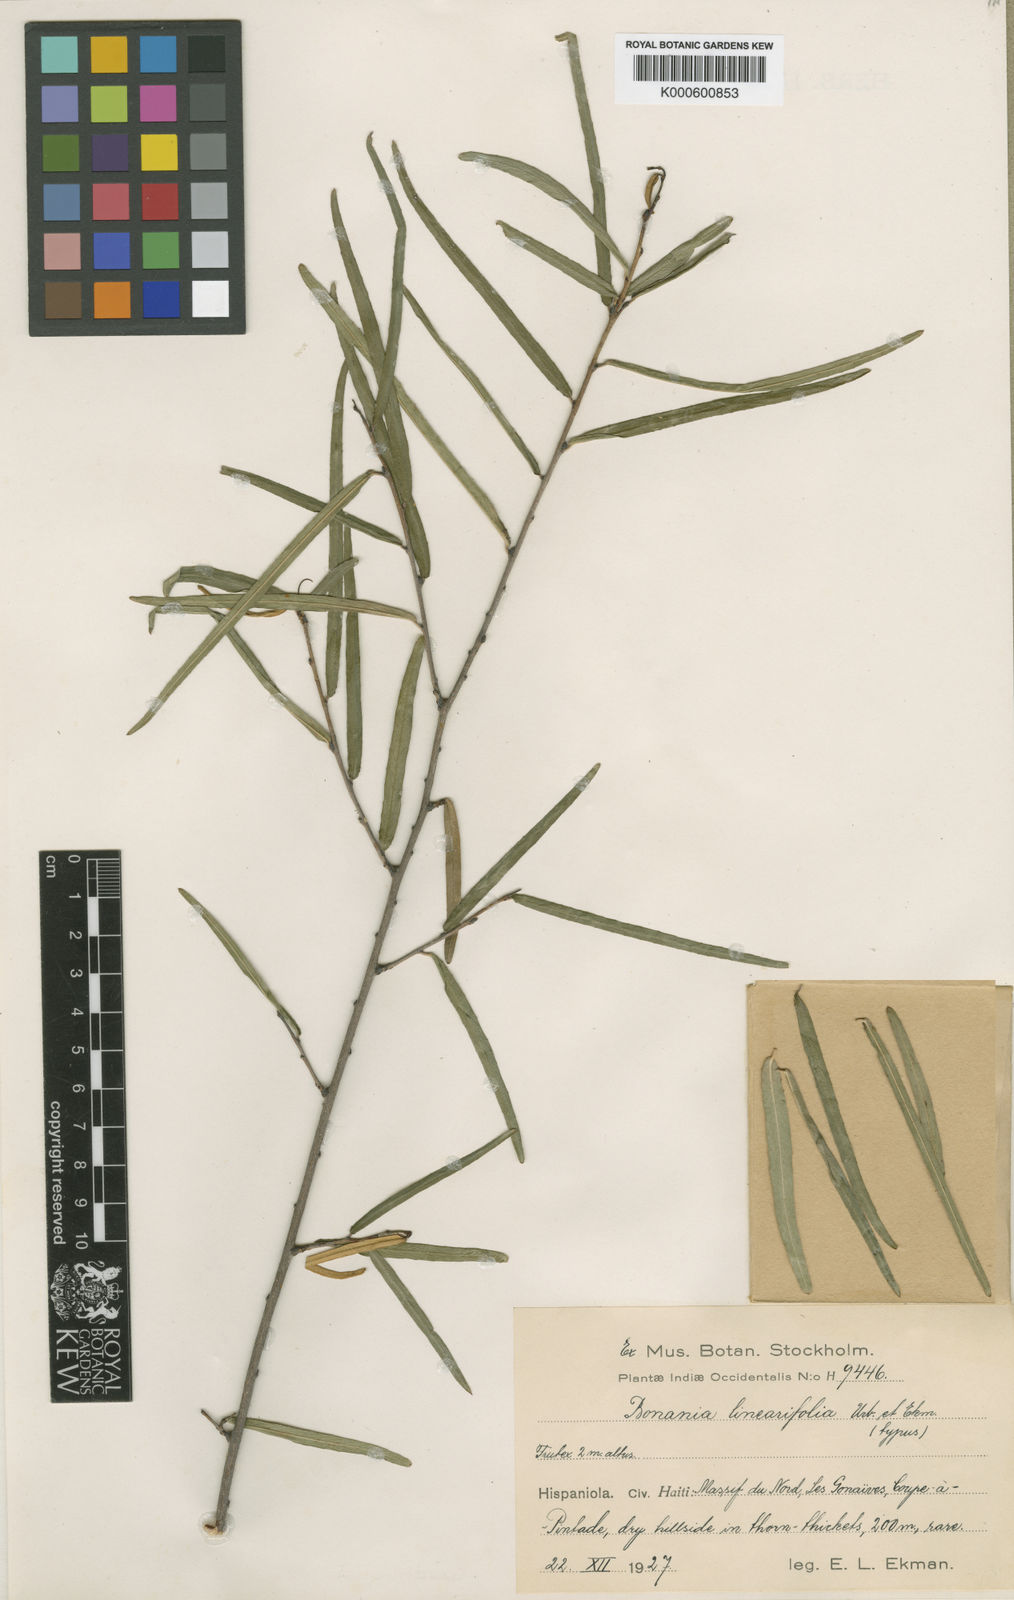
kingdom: Plantae
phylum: Tracheophyta
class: Magnoliopsida
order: Malpighiales
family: Euphorbiaceae
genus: Bonania
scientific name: Bonania linearifolia
